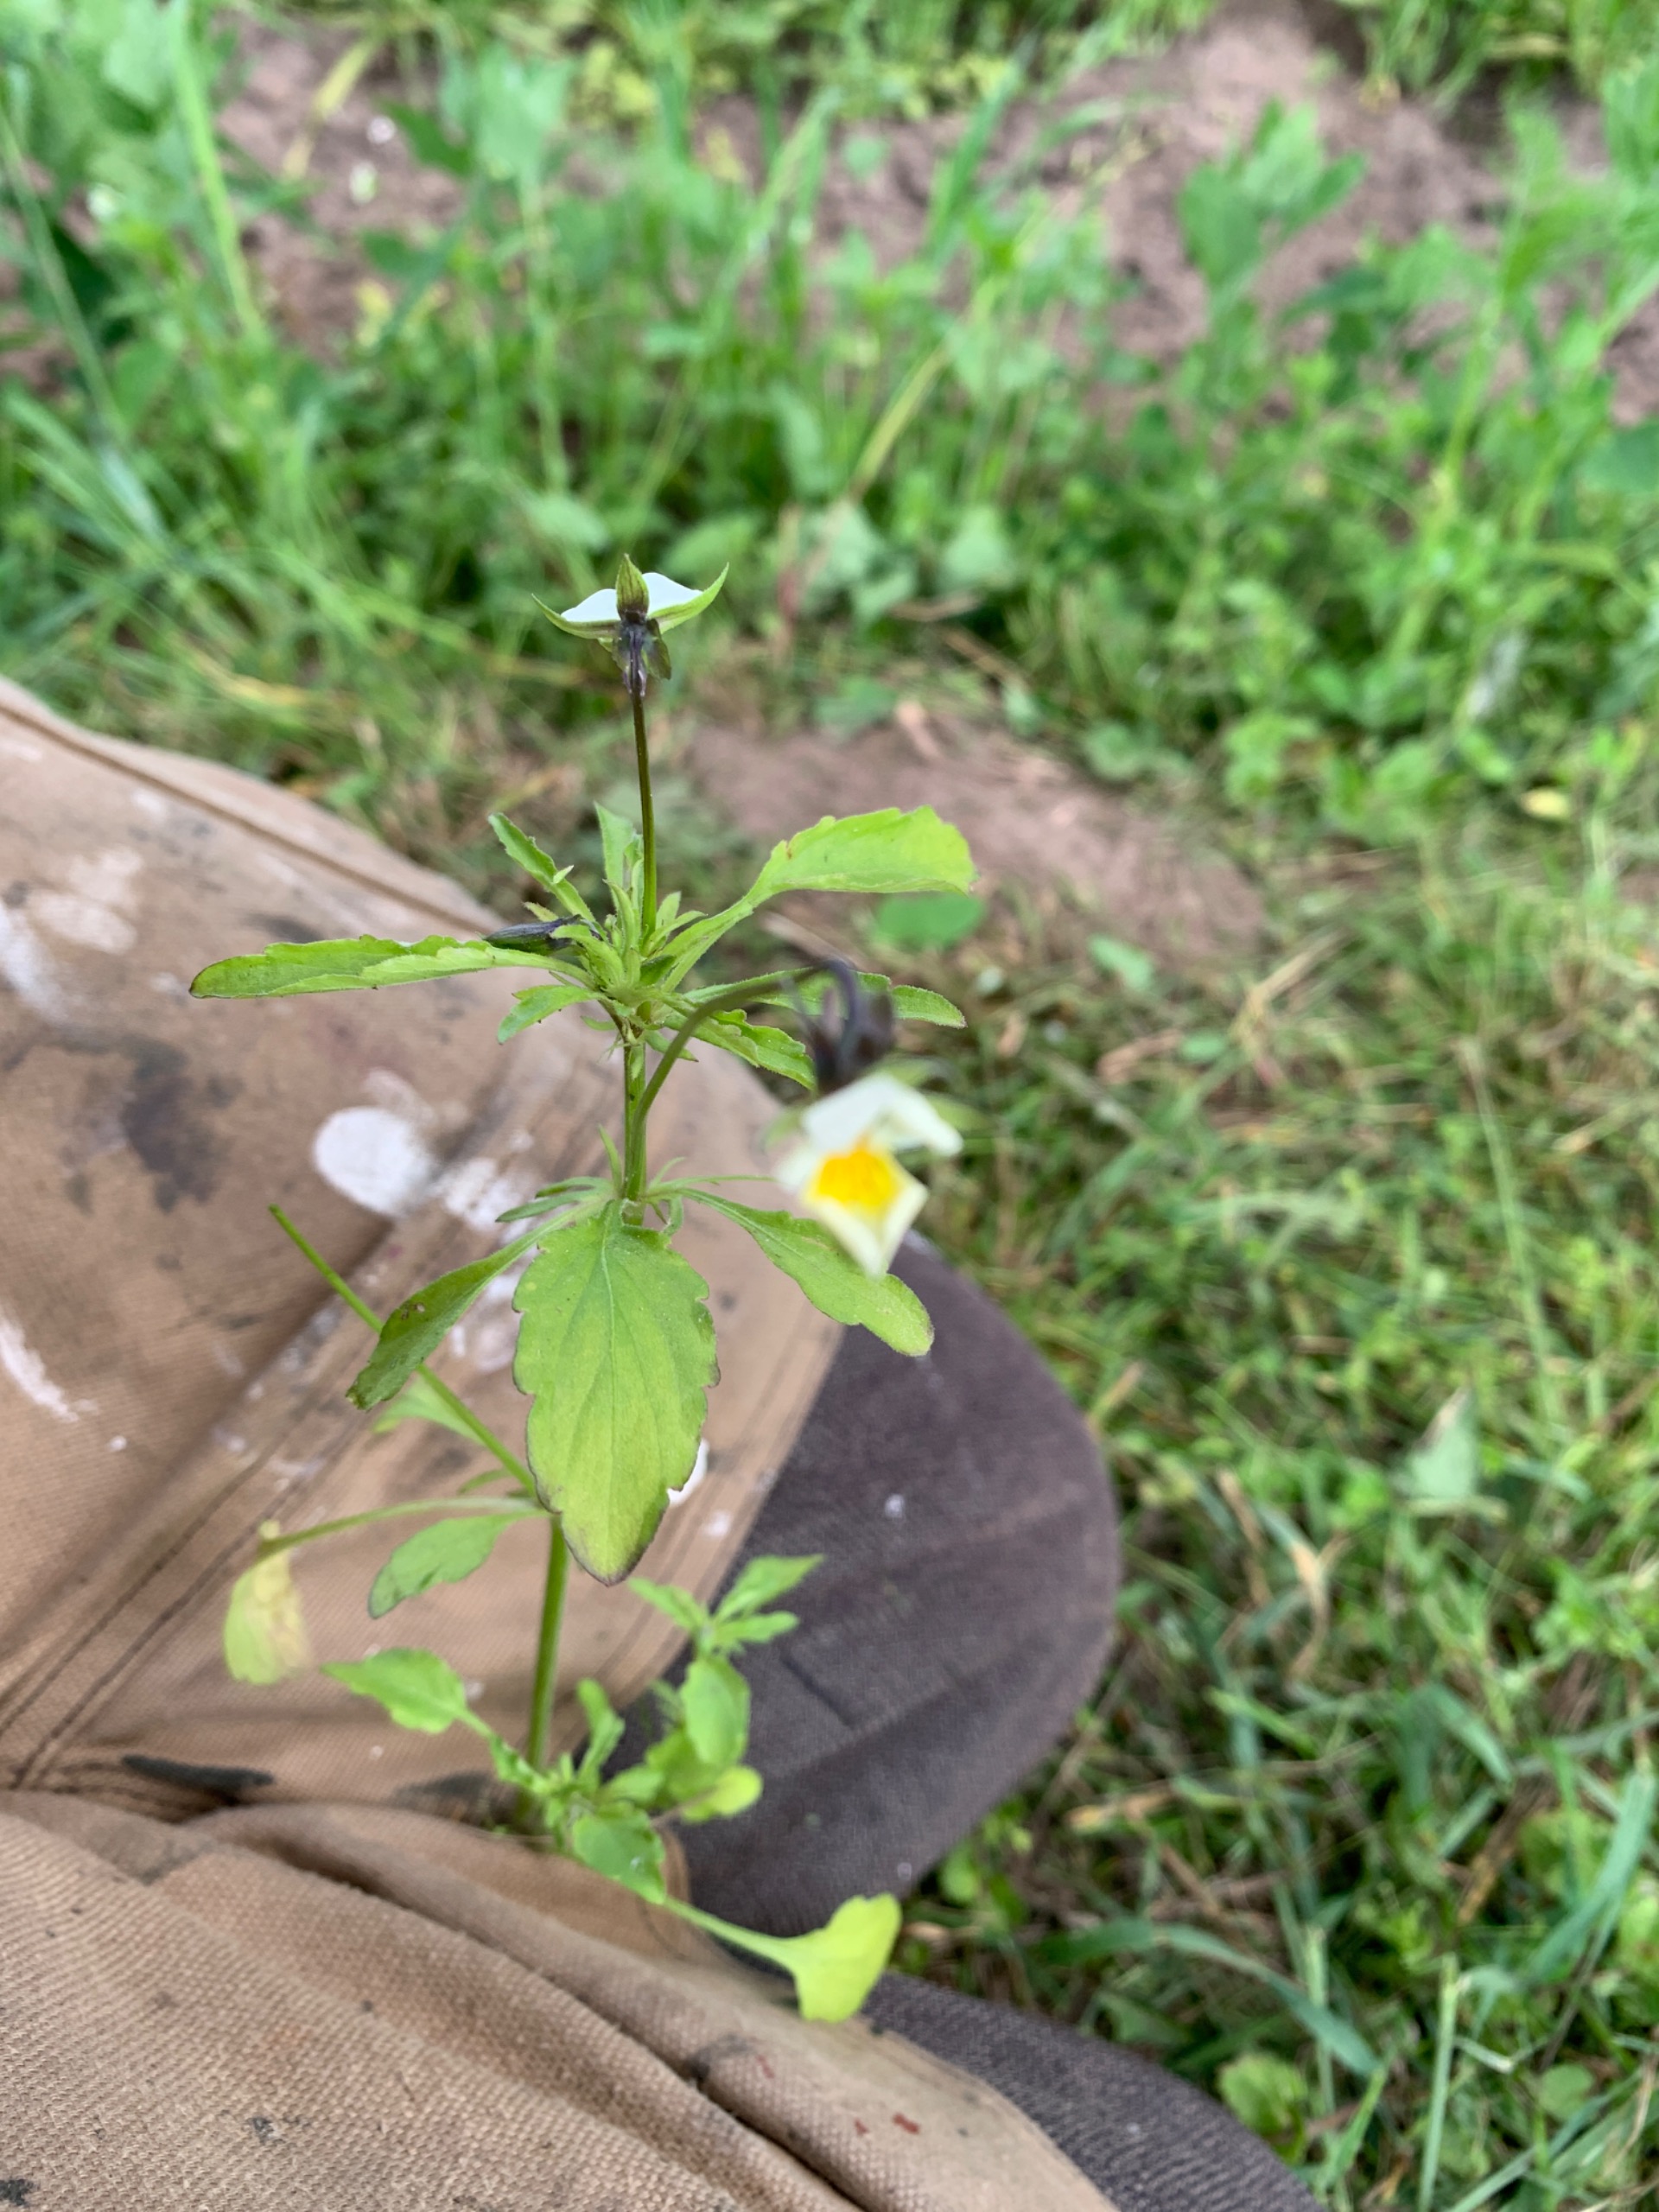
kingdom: Plantae
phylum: Tracheophyta
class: Magnoliopsida
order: Malpighiales
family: Violaceae
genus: Viola
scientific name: Viola arvensis
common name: Ager-stedmoderblomst
